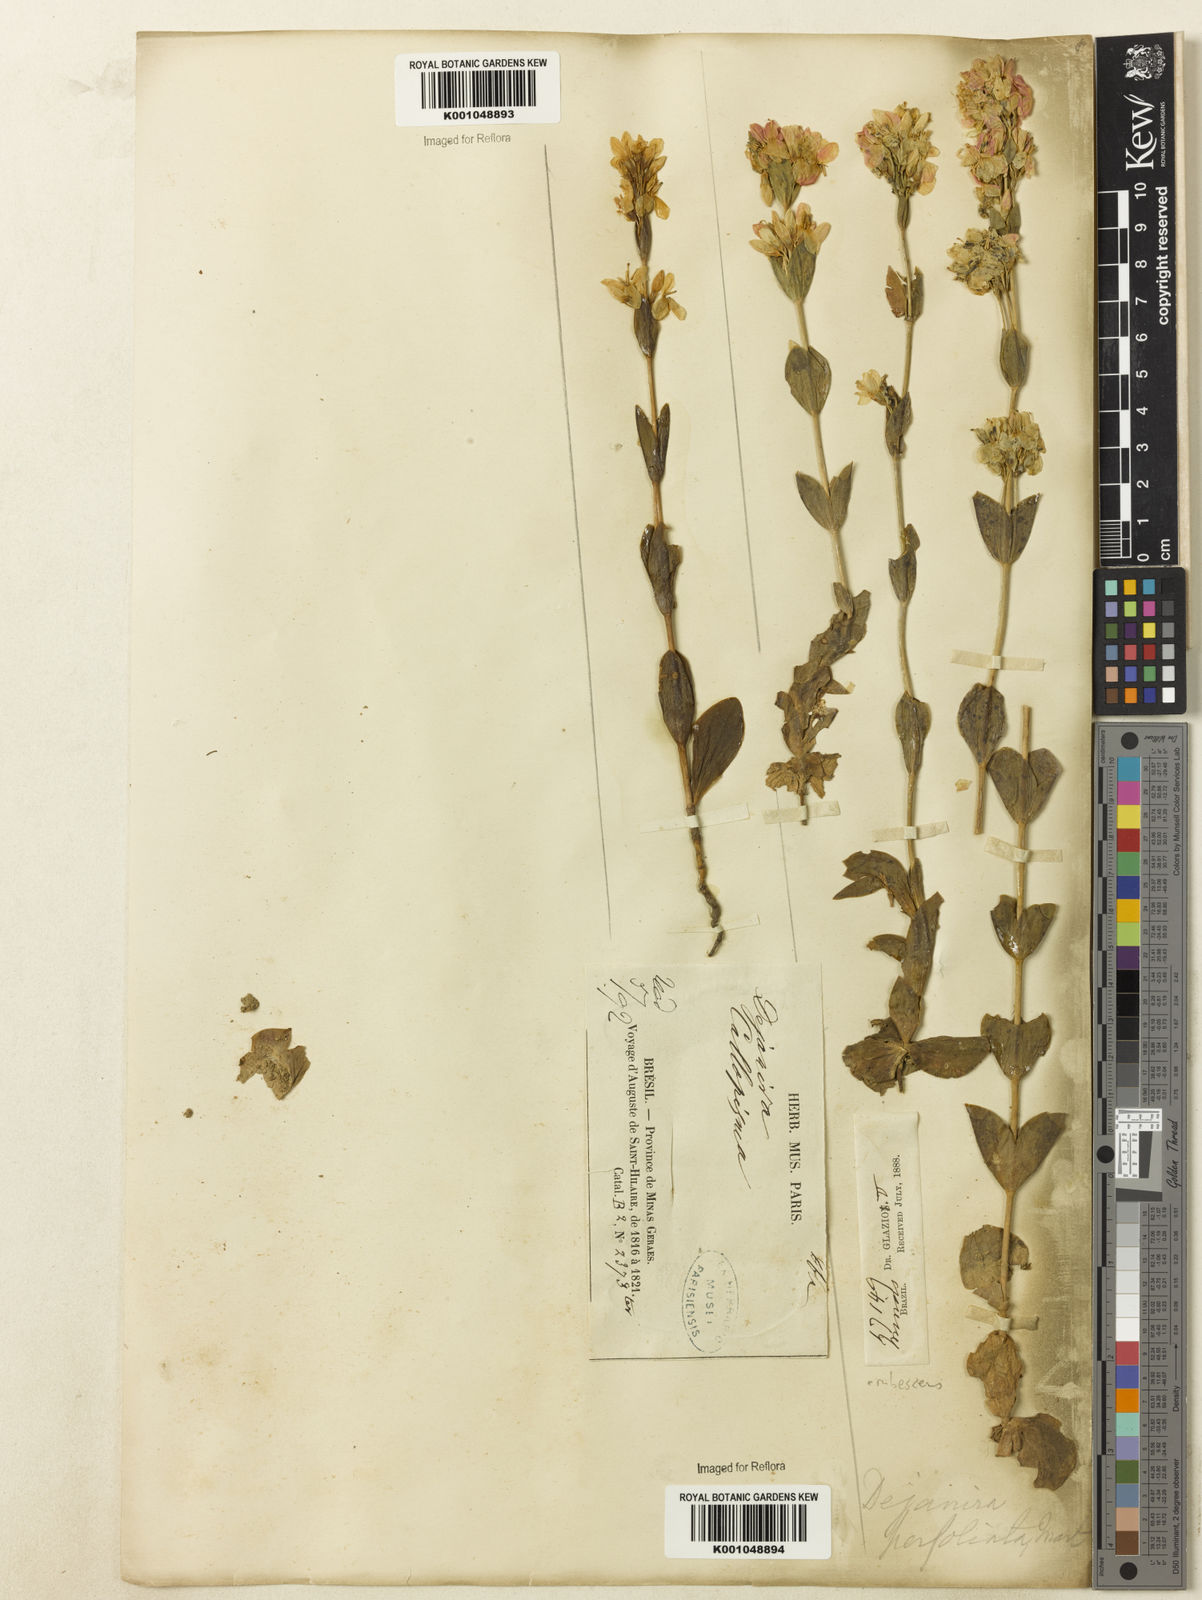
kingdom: Plantae
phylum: Tracheophyta
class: Magnoliopsida
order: Gentianales
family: Gentianaceae
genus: Deianira
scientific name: Deianira erubescens
